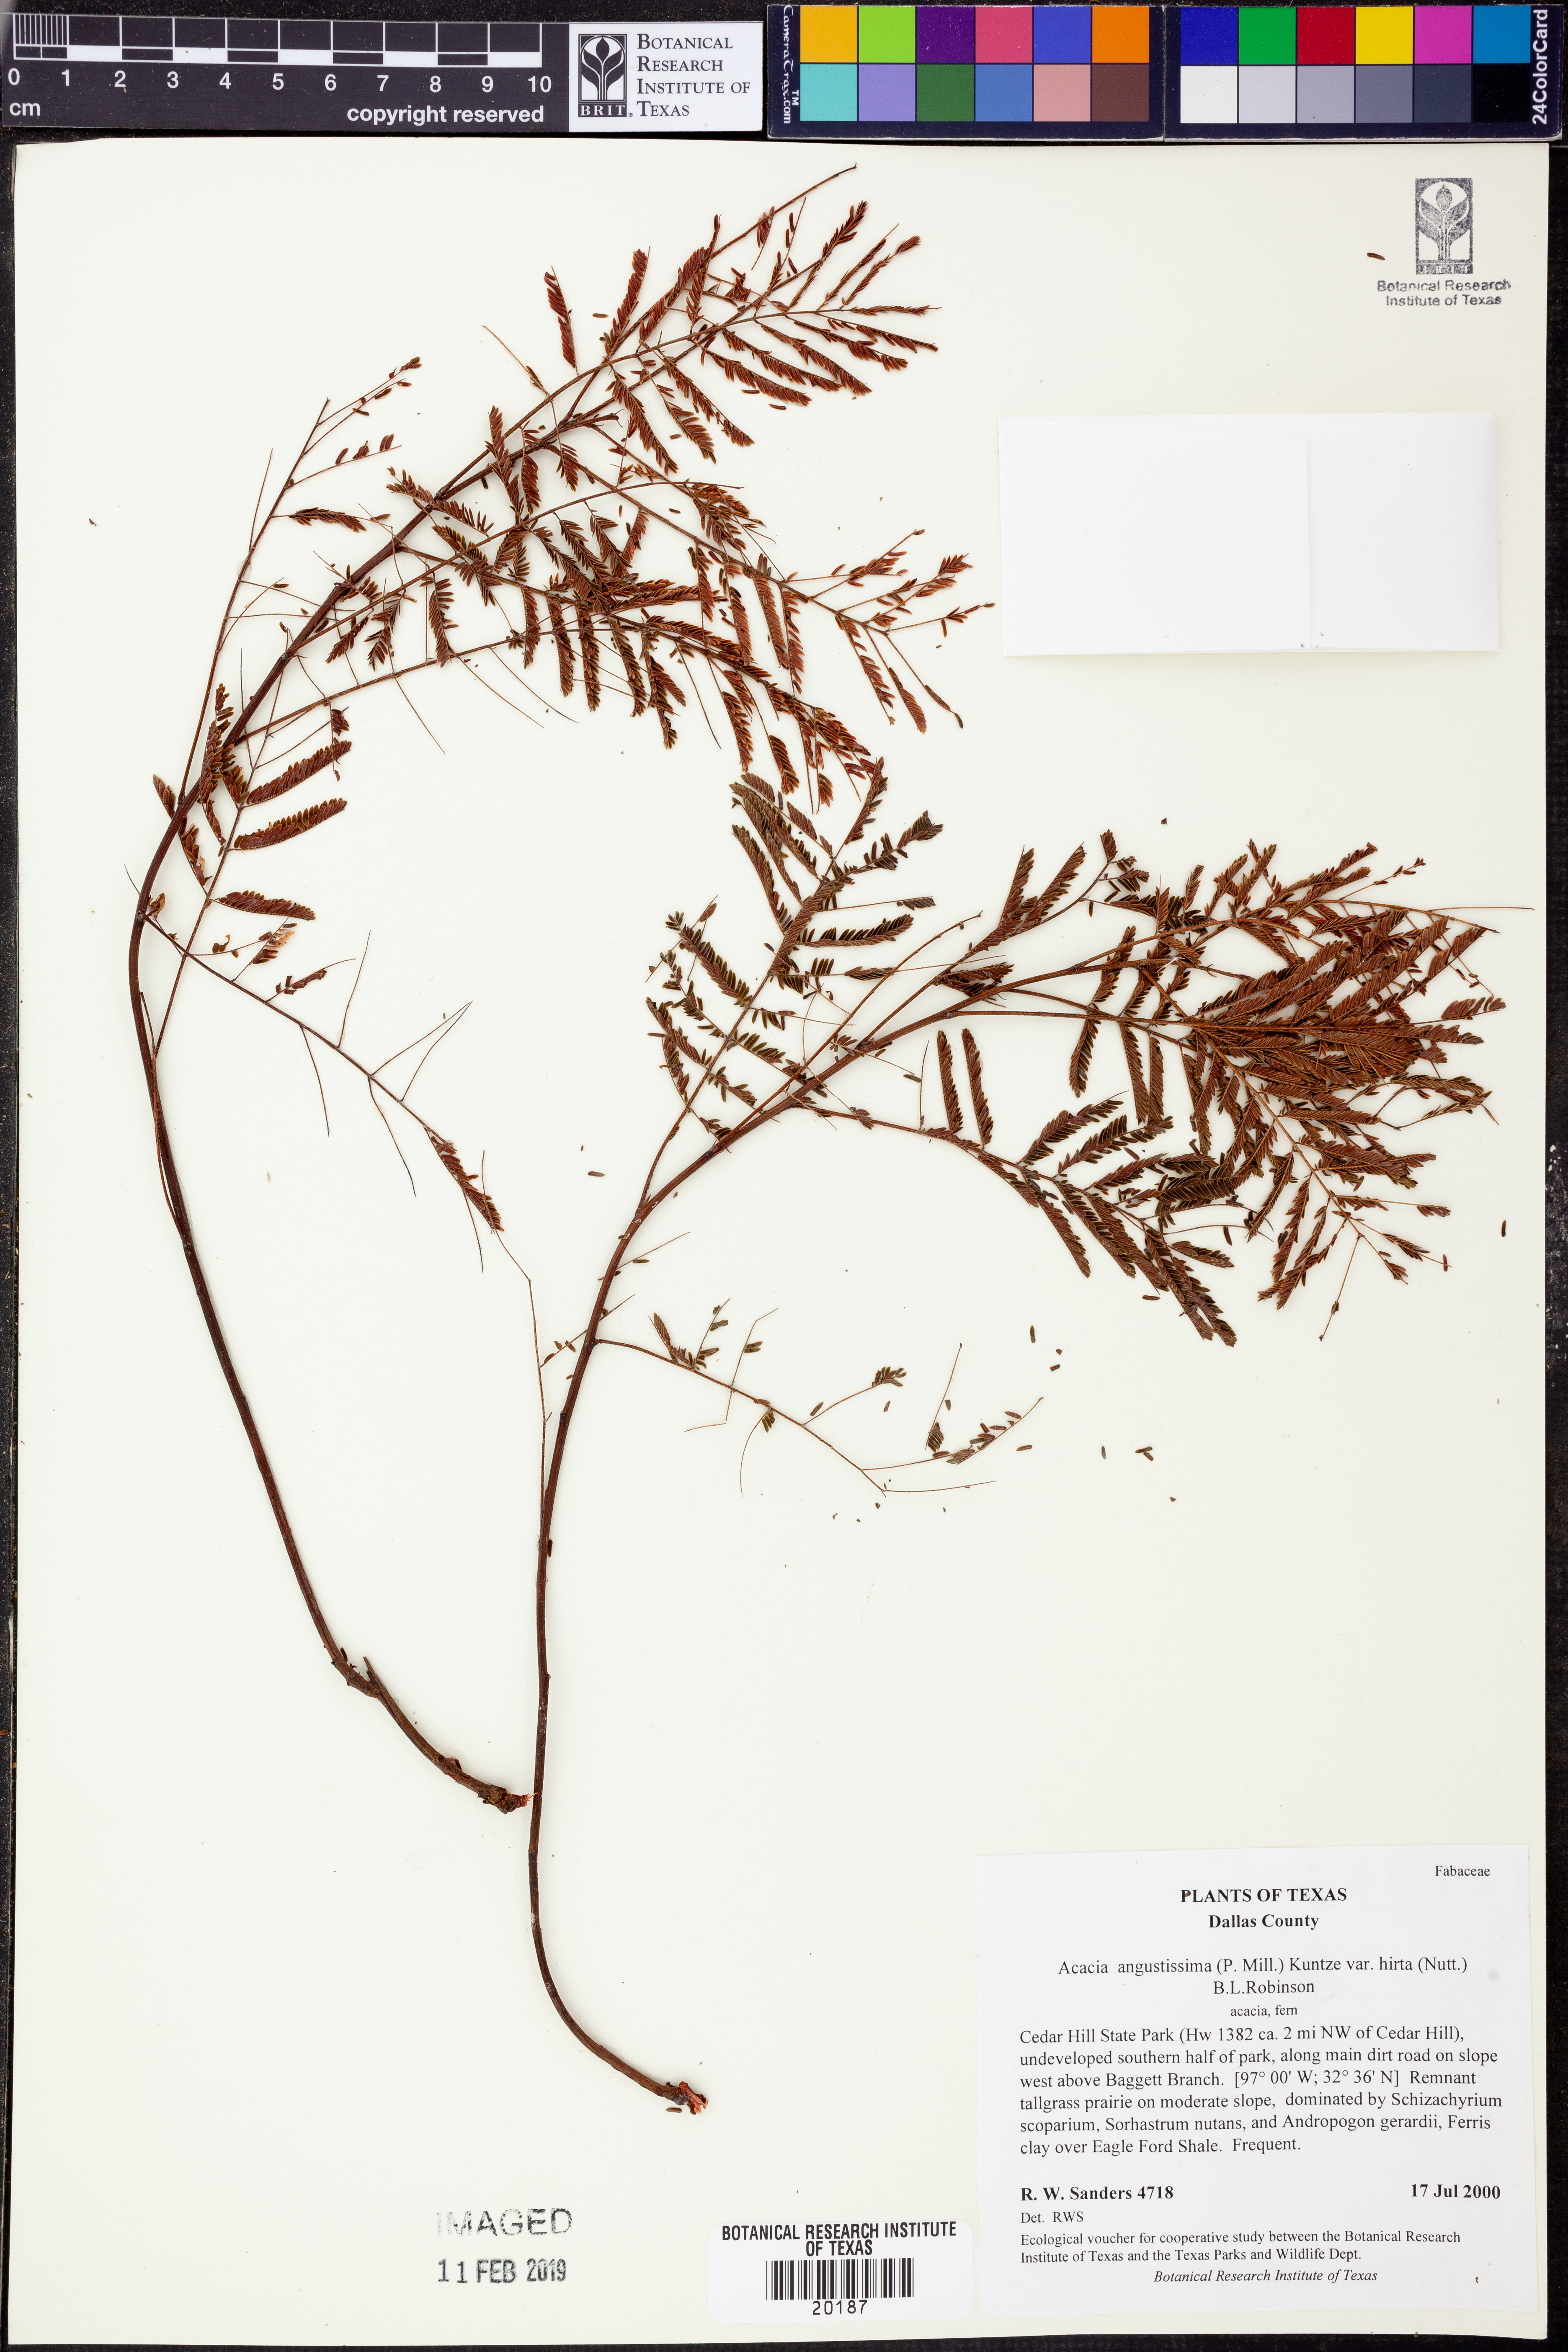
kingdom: Plantae
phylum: Tracheophyta
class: Magnoliopsida
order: Fabales
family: Fabaceae
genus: Acaciella
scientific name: Acaciella angustissima
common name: Prairie acacia
